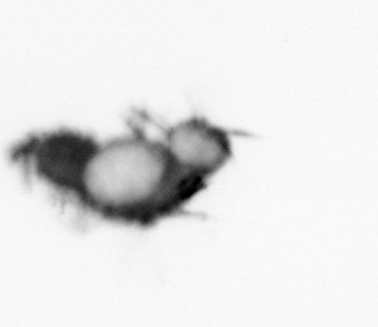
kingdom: Animalia
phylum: Annelida
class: Polychaeta
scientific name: Polychaeta
